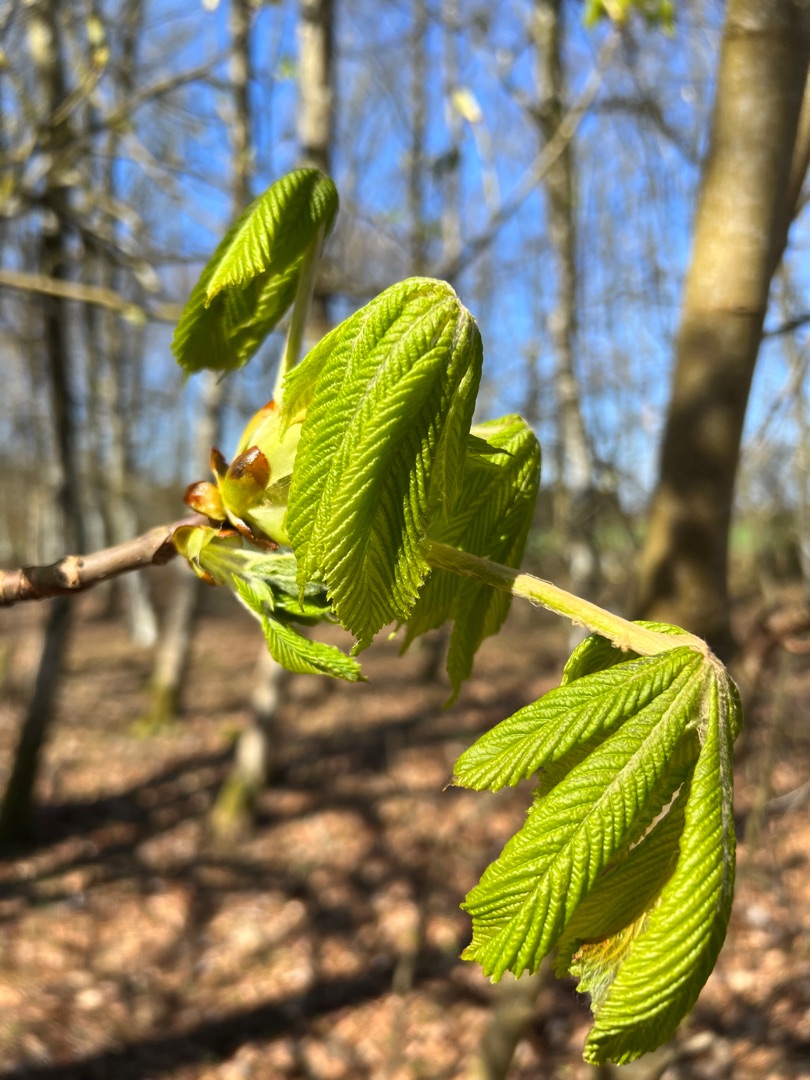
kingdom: Plantae
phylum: Tracheophyta
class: Magnoliopsida
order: Sapindales
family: Sapindaceae
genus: Aesculus
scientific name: Aesculus hippocastanum
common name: Hestekastanie
